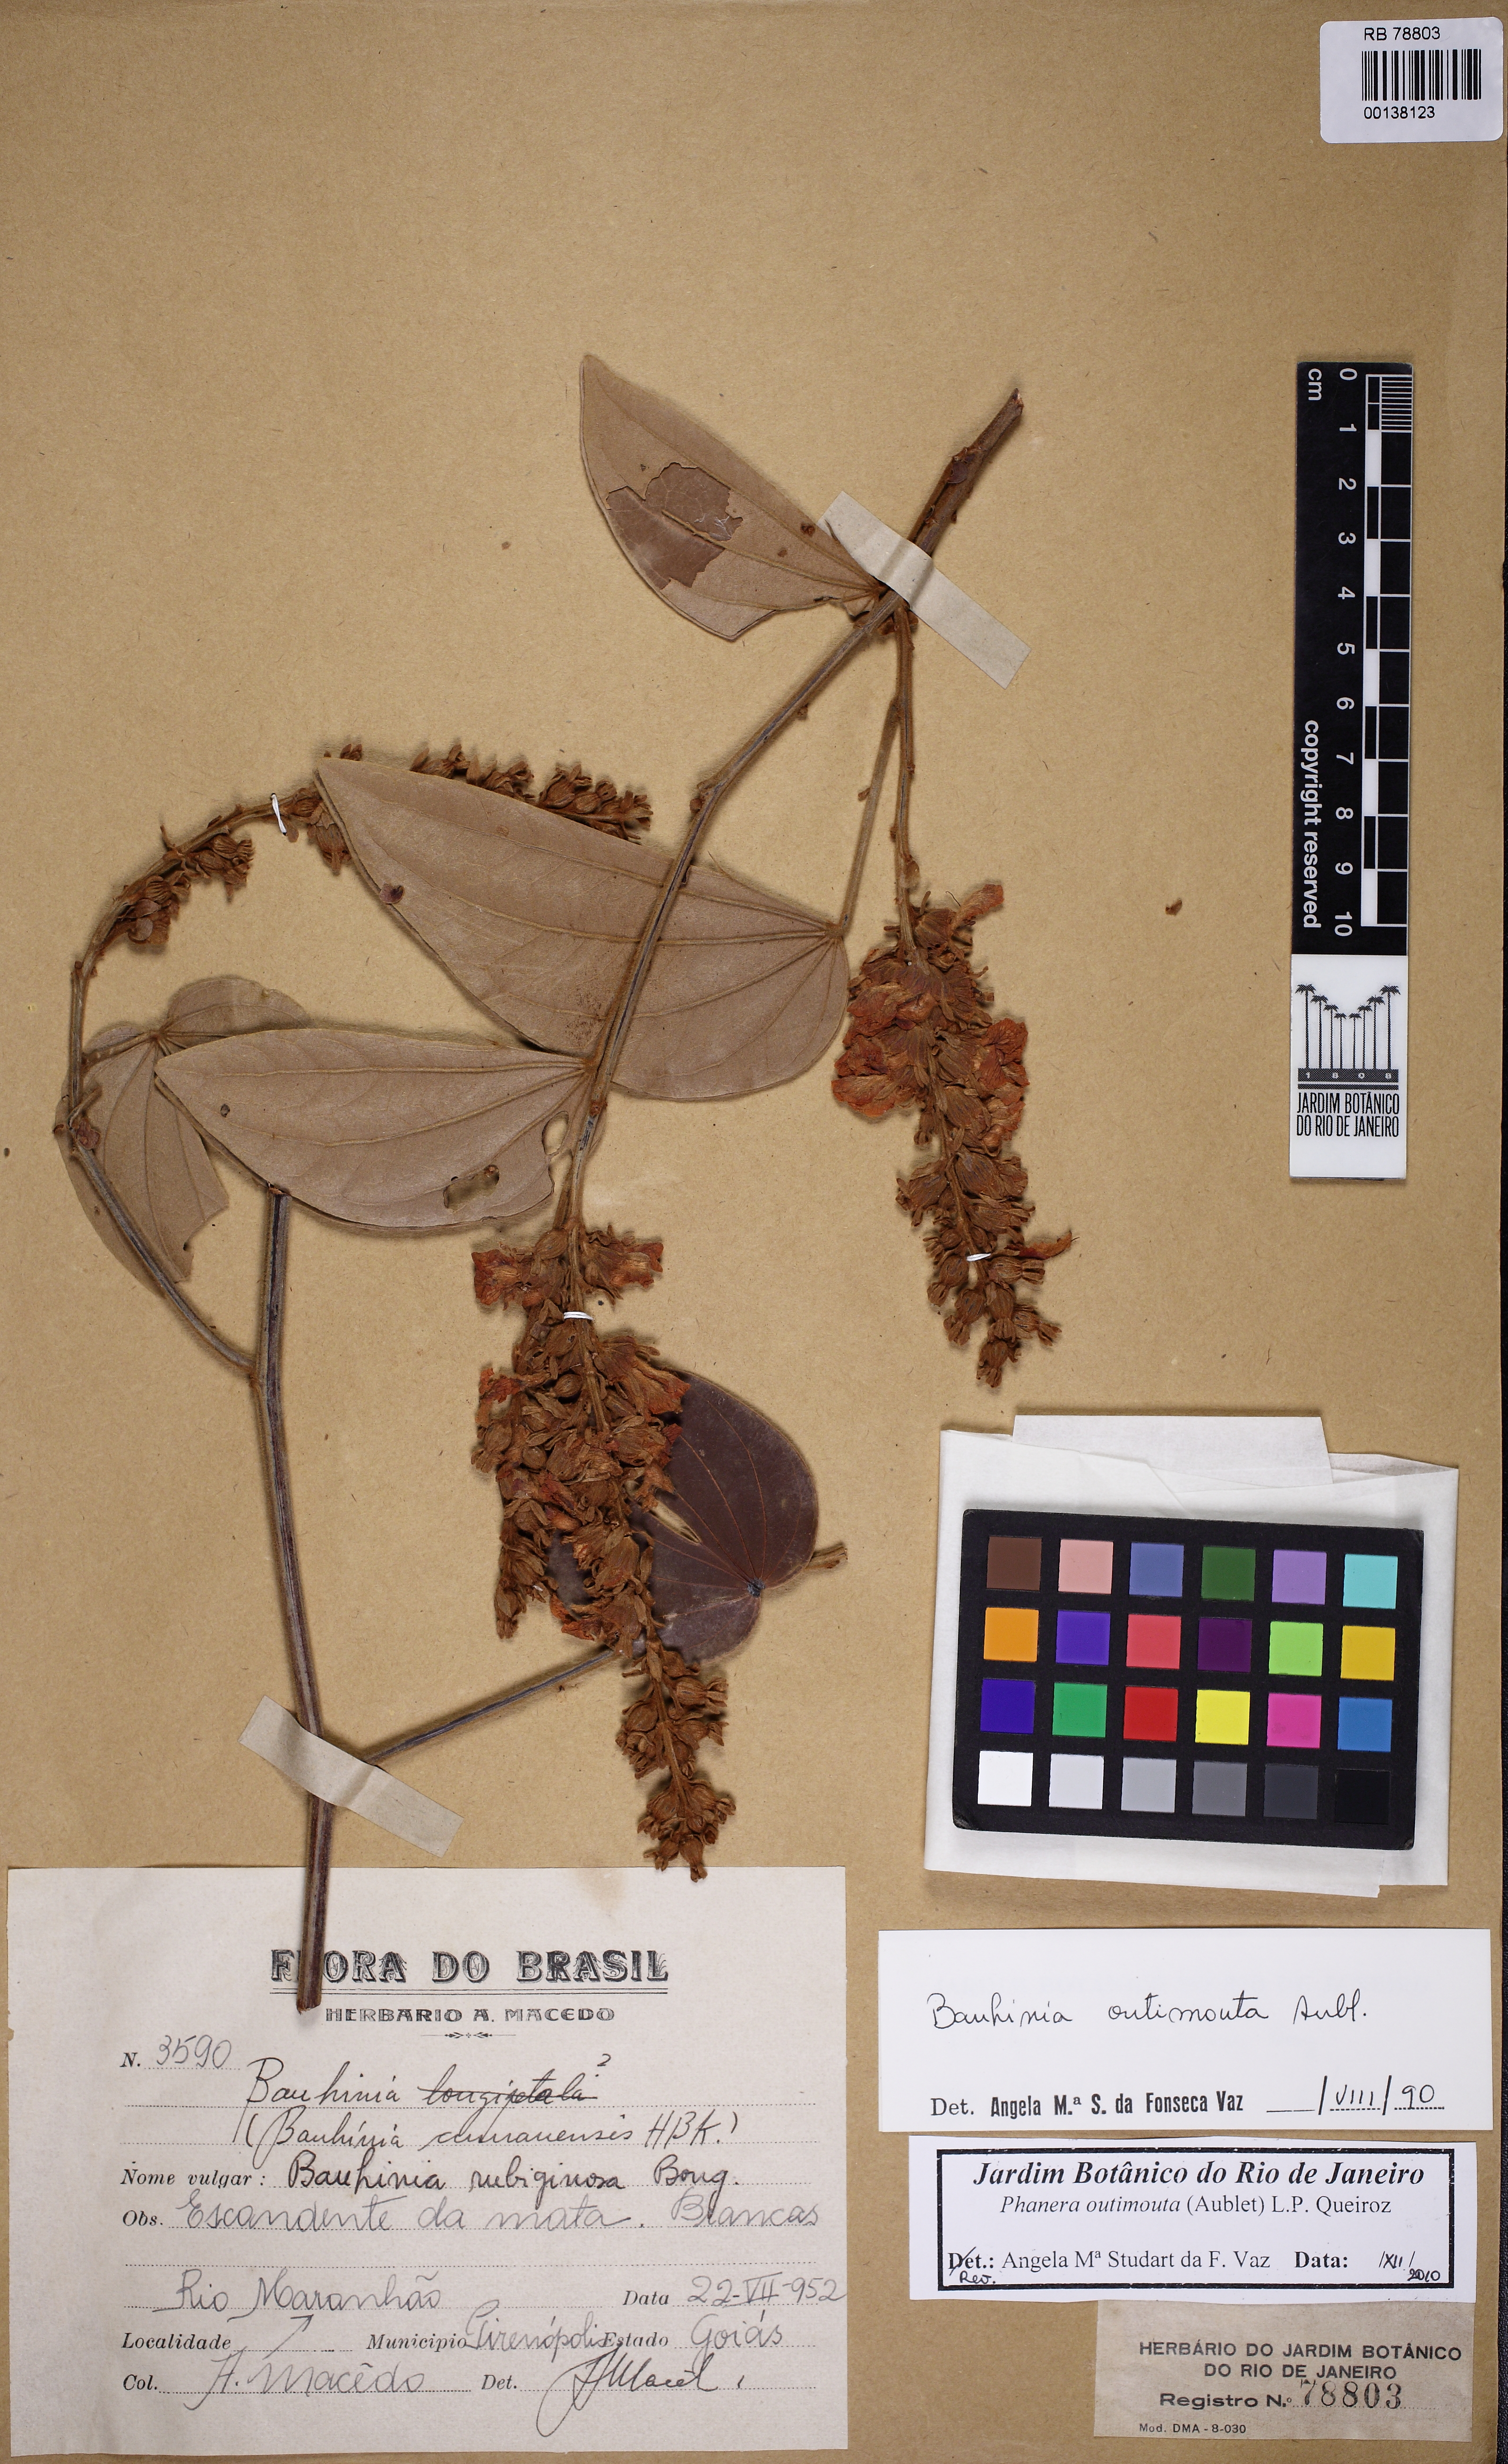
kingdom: Plantae
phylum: Tracheophyta
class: Magnoliopsida
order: Fabales
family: Fabaceae
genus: Schnella
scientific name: Schnella outimouta
